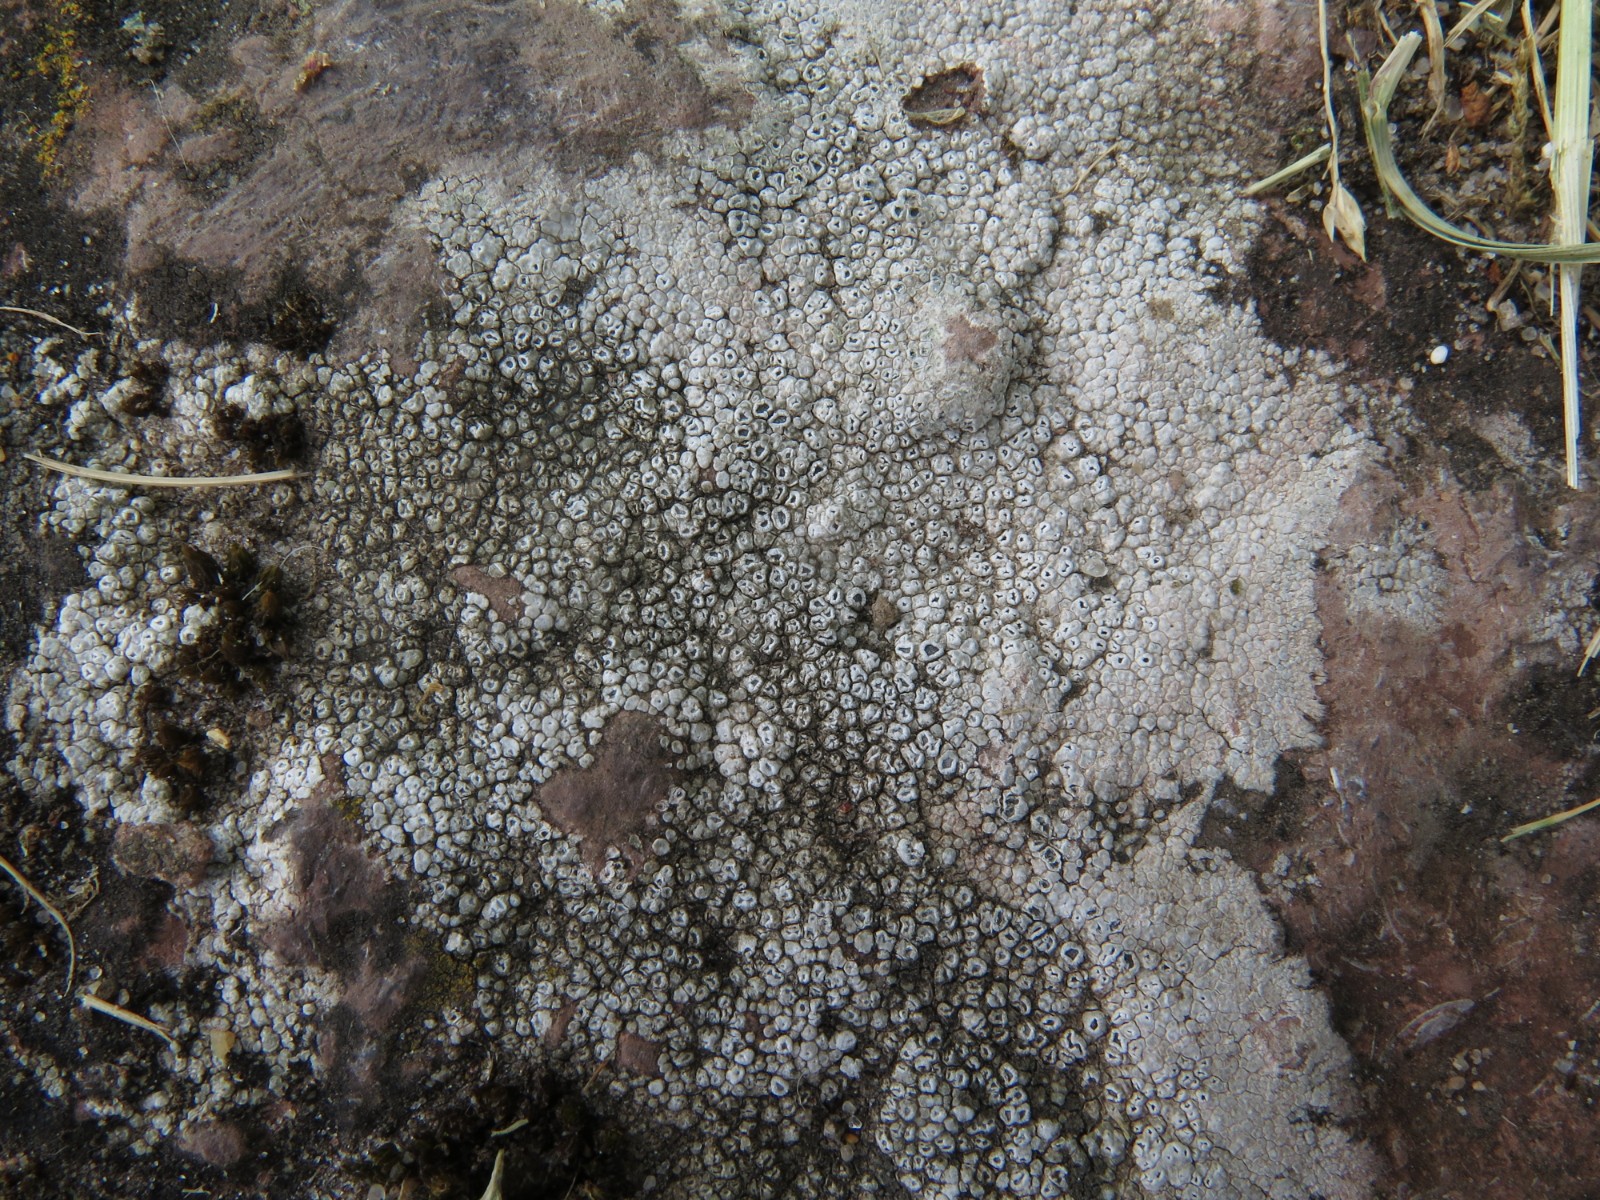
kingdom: Fungi
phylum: Ascomycota
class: Lecanoromycetes
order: Pertusariales
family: Megasporaceae
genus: Circinaria
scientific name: Circinaria contorta
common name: indviklet hulskivelav
